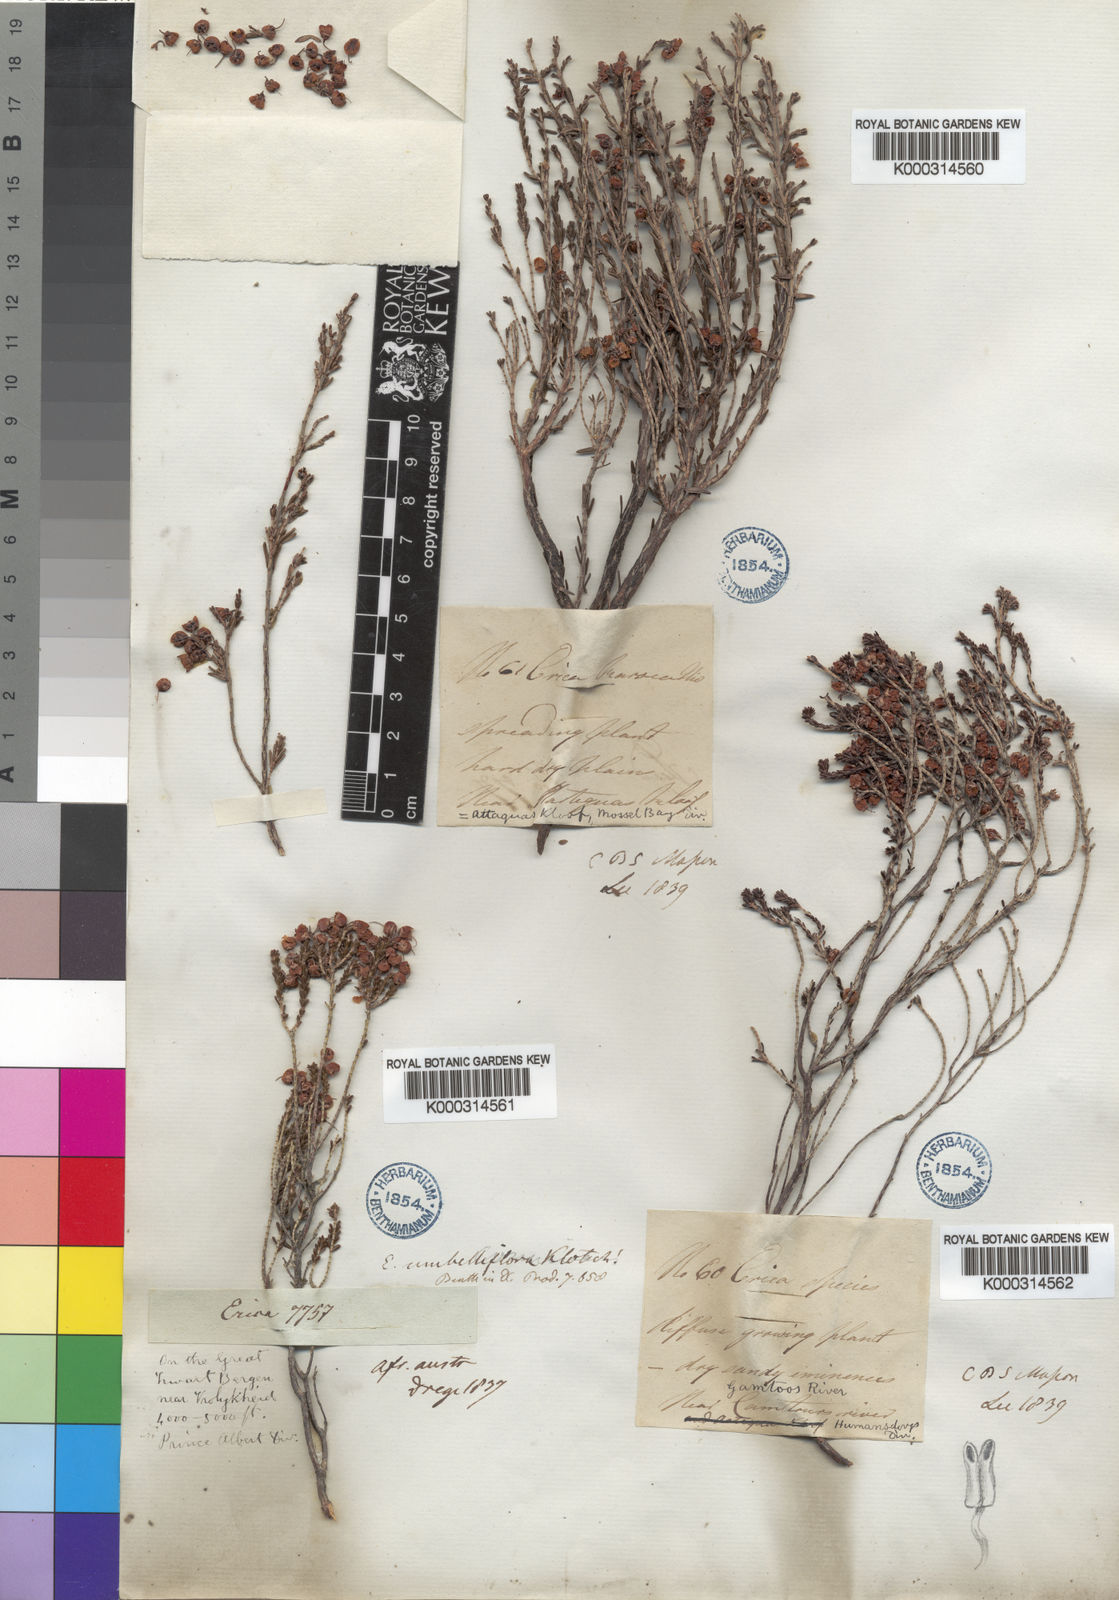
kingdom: Plantae
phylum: Tracheophyta
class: Magnoliopsida
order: Ericales
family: Ericaceae
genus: Erica
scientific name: Erica umbelliflora
